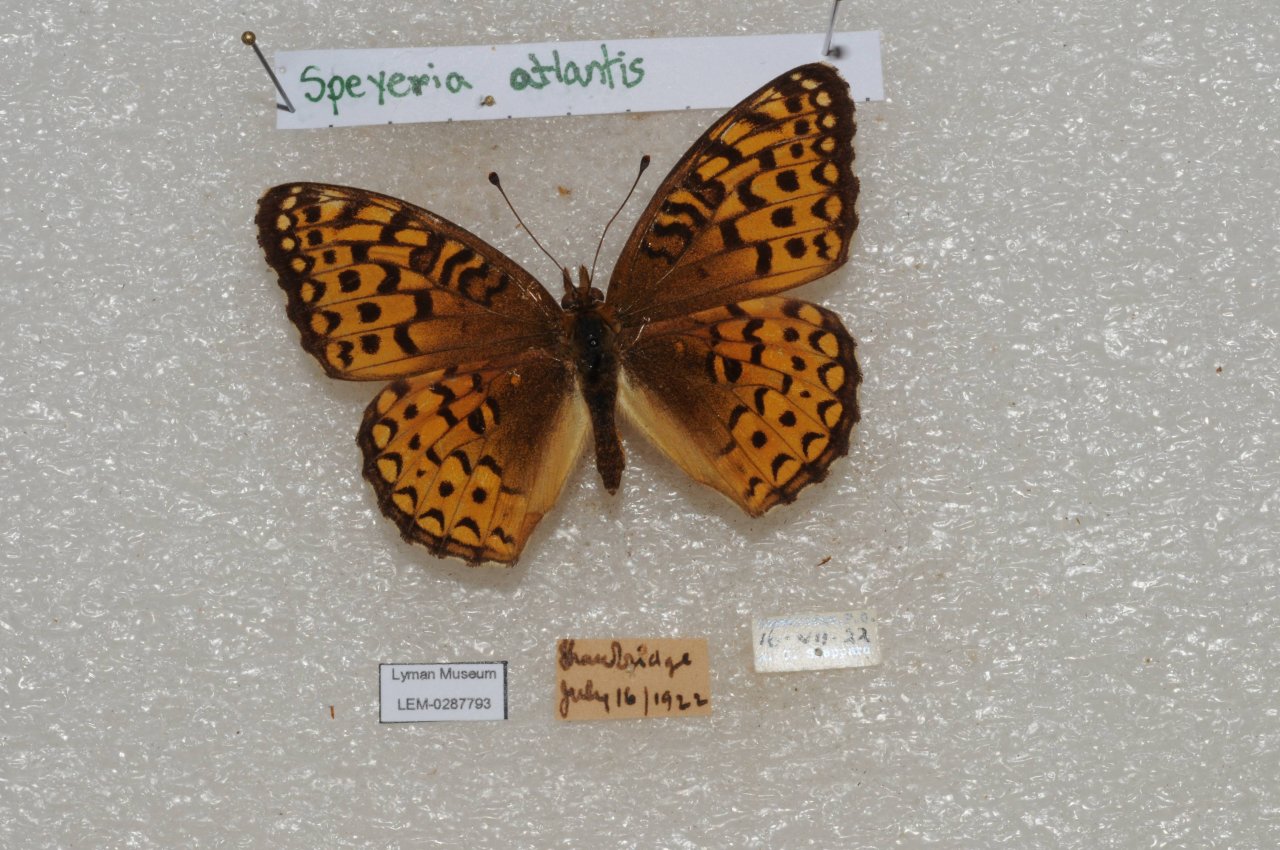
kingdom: Animalia
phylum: Arthropoda
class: Insecta
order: Lepidoptera
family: Nymphalidae
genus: Speyeria
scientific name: Speyeria atlantis
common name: Atlantis Fritillary
